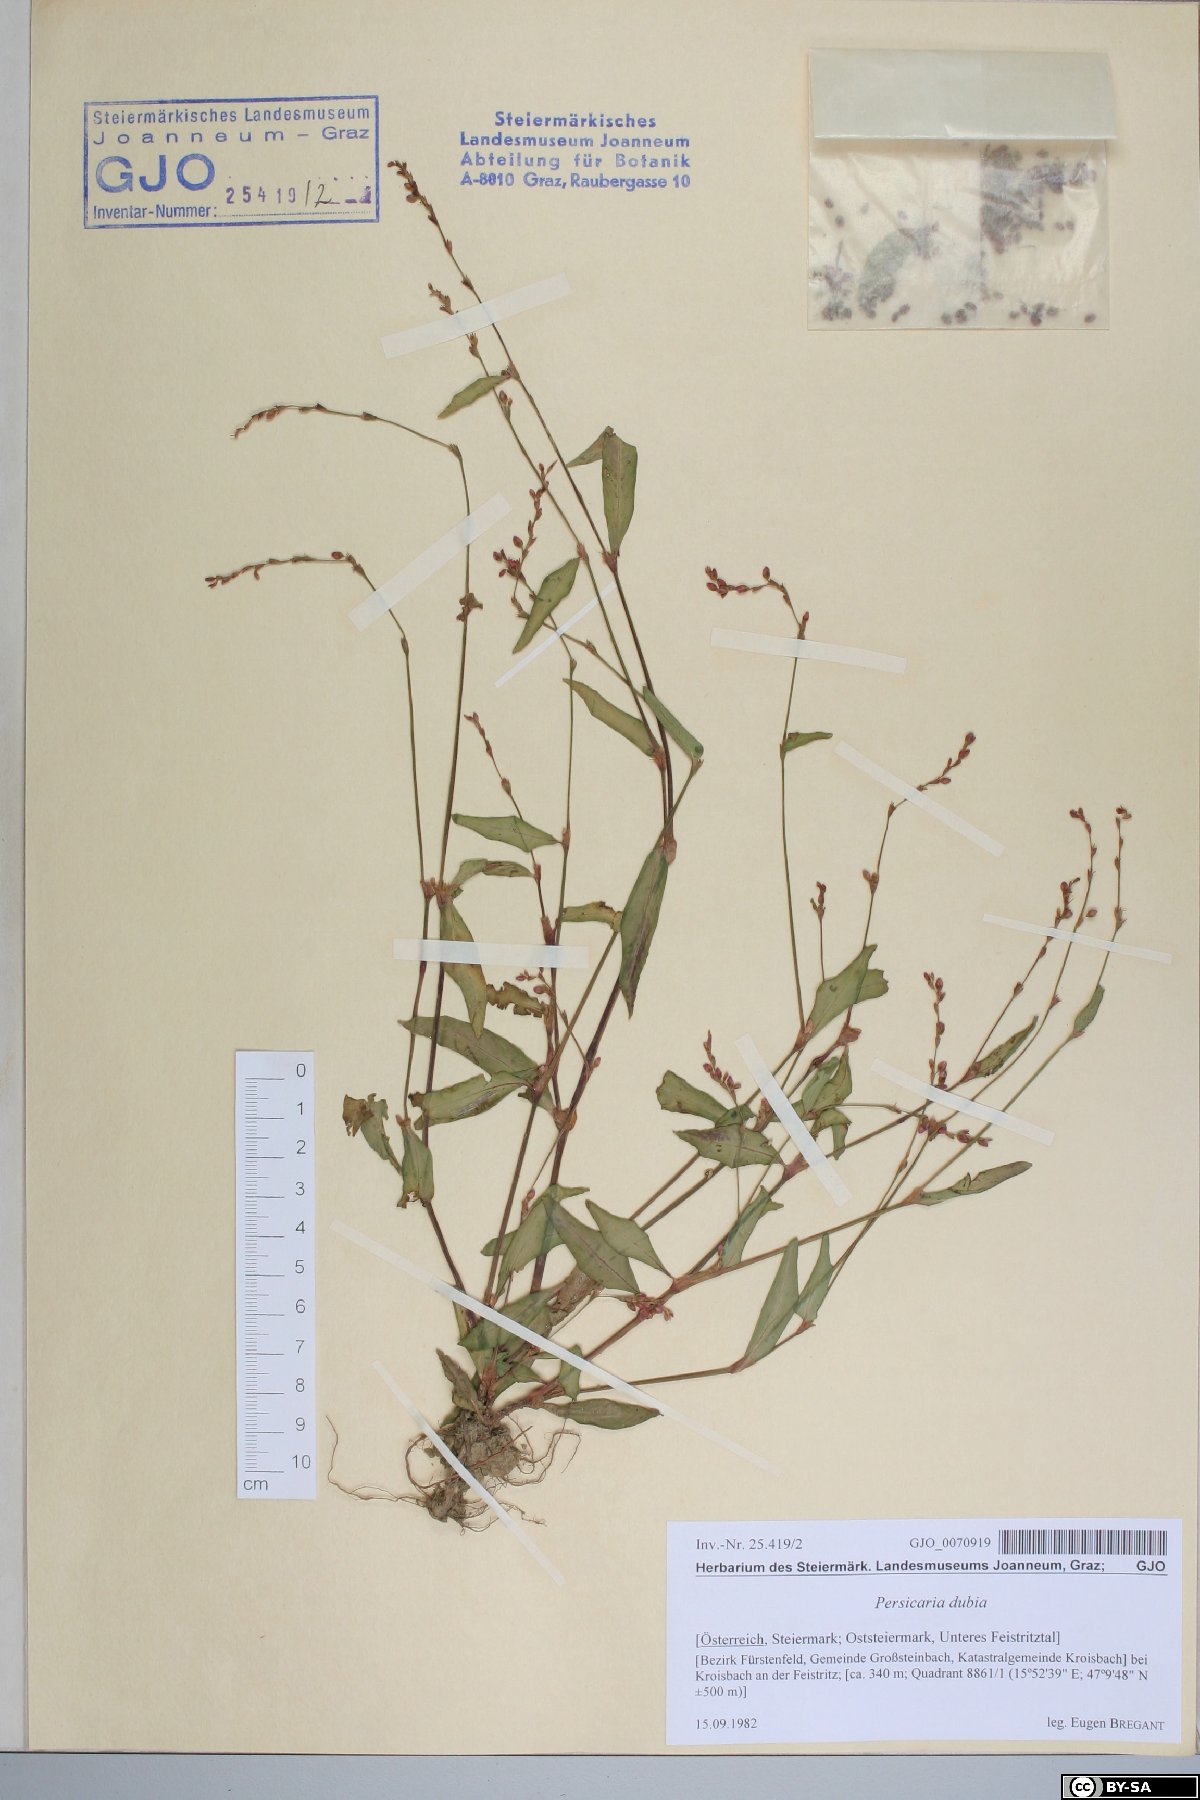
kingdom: Plantae
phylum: Tracheophyta
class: Magnoliopsida
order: Caryophyllales
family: Polygonaceae
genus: Persicaria
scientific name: Persicaria mitis
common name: Tasteless water-pepper
